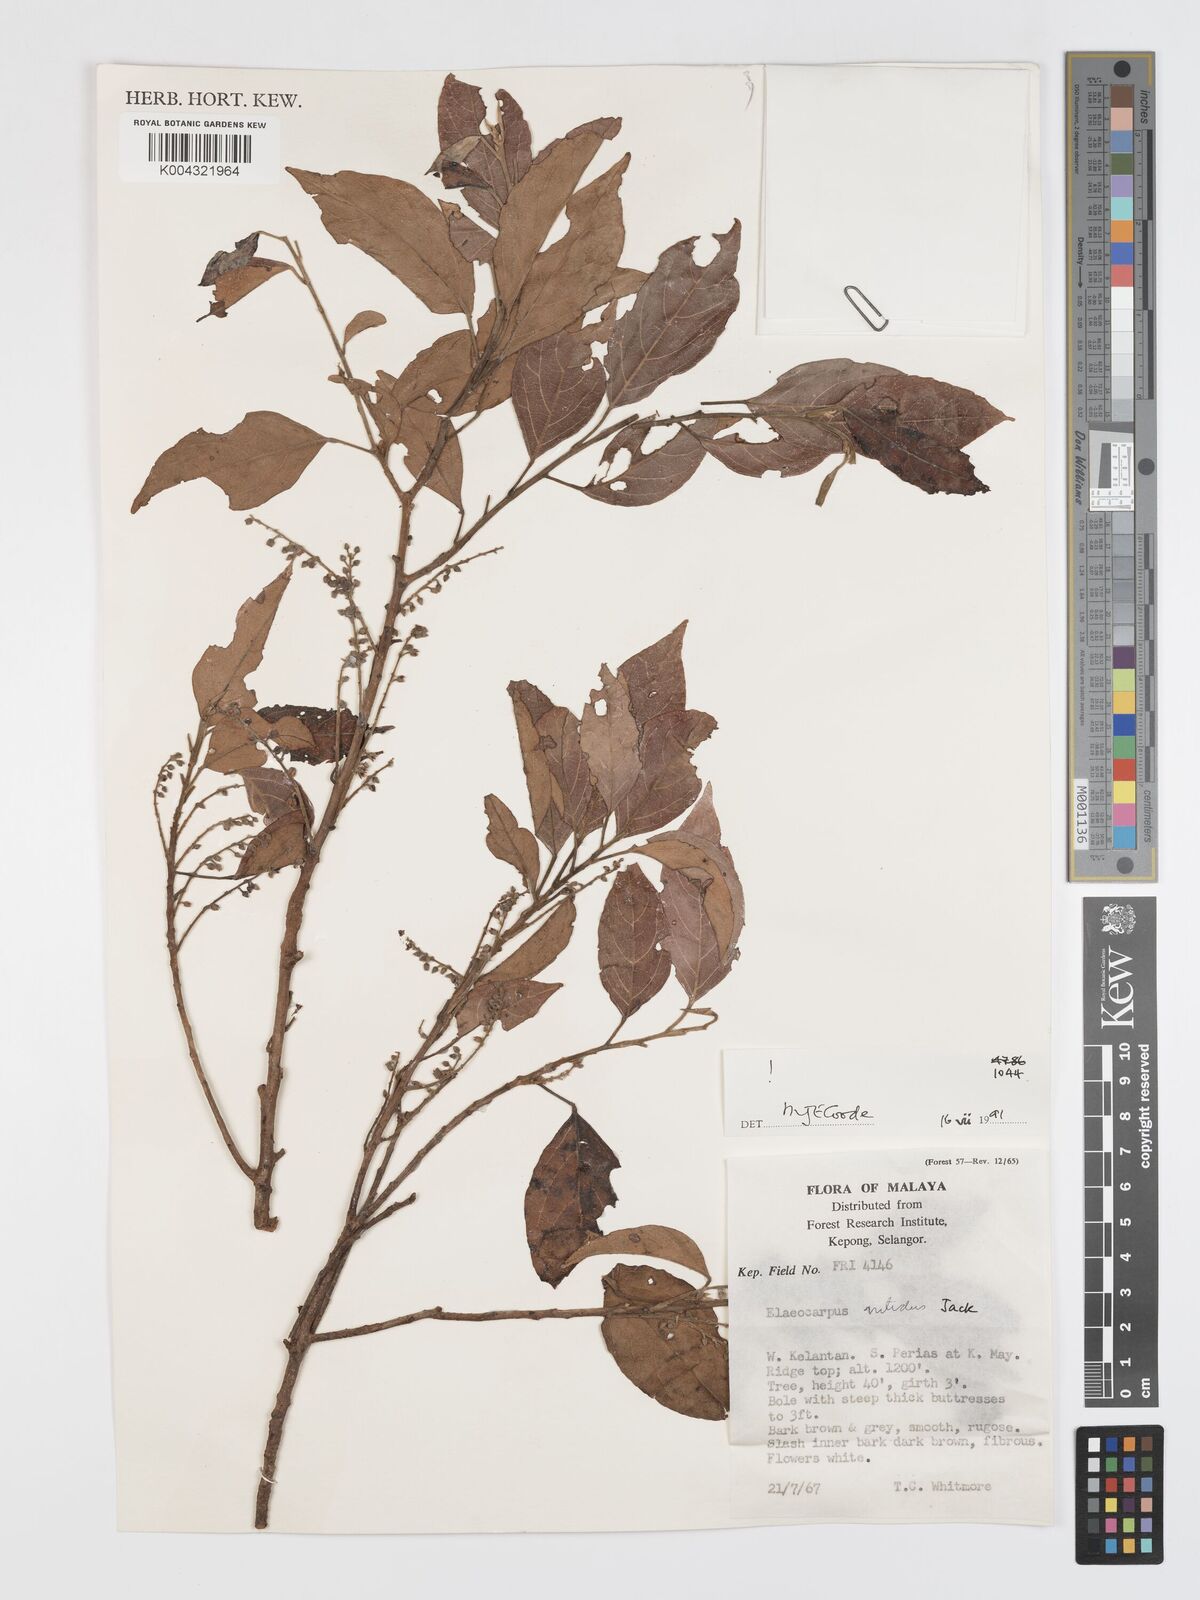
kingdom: Plantae
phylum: Tracheophyta
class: Magnoliopsida
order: Oxalidales
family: Elaeocarpaceae
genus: Elaeocarpus
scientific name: Elaeocarpus nitidus
